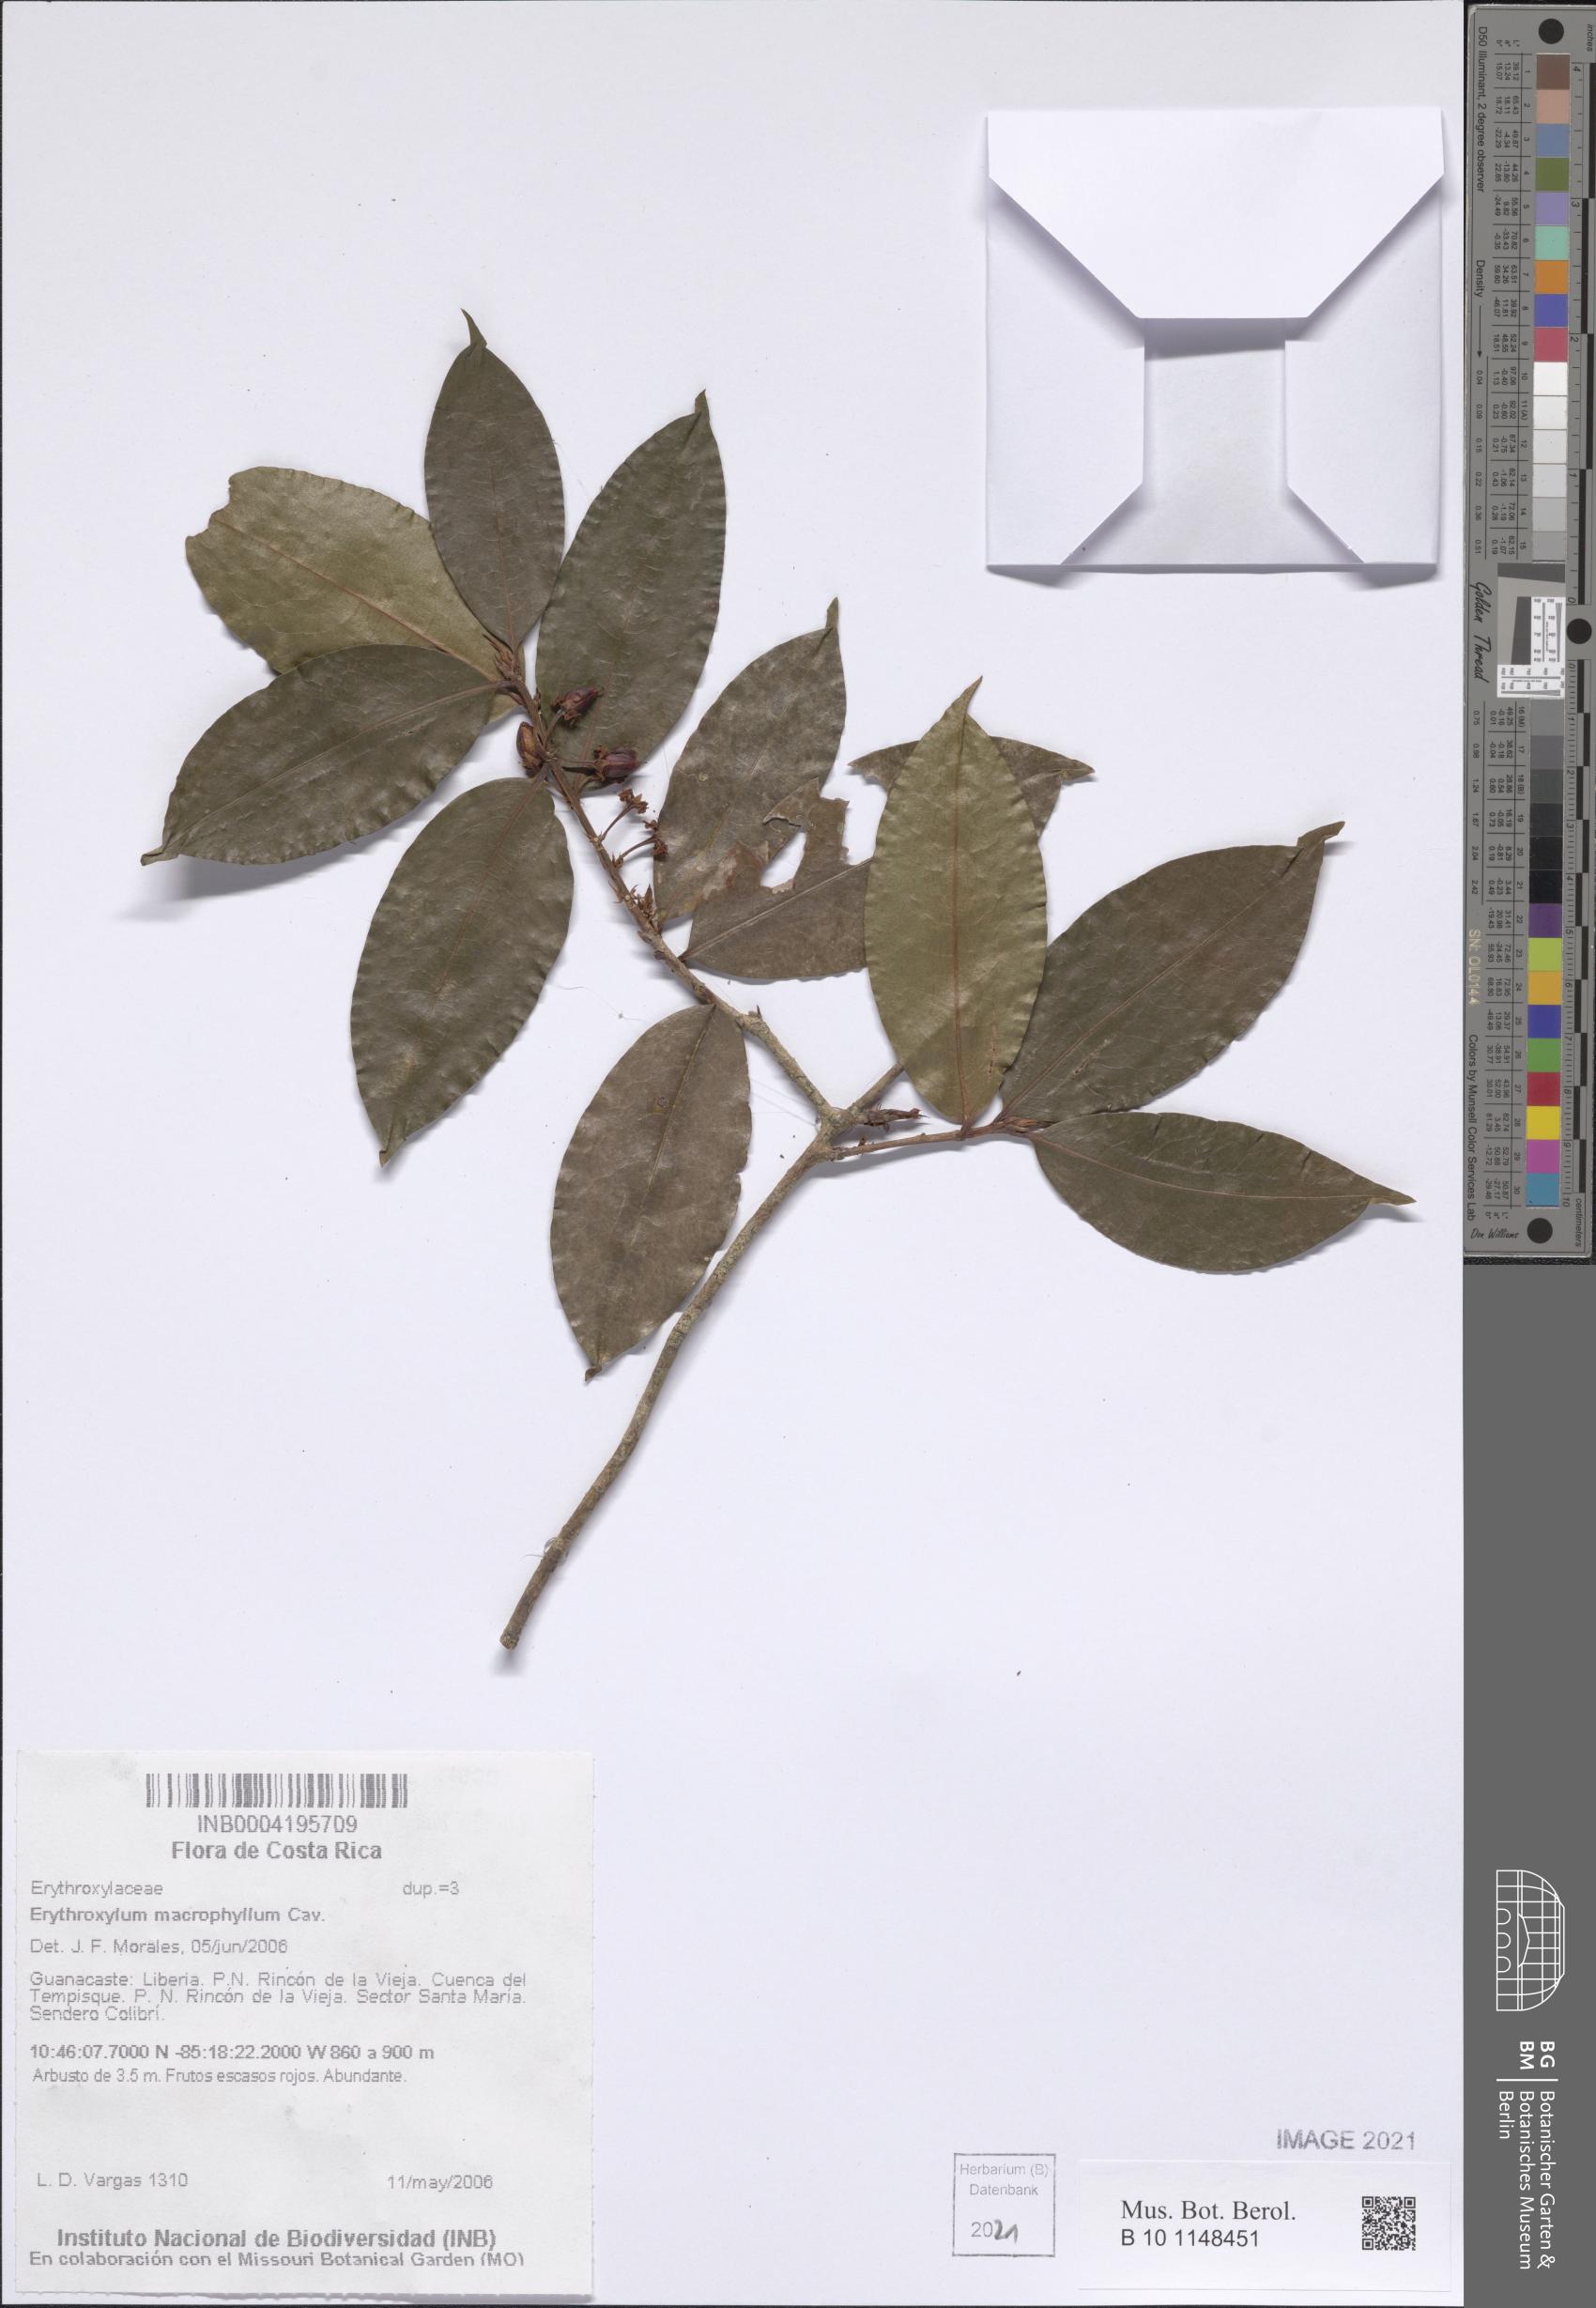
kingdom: Plantae
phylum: Tracheophyta
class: Magnoliopsida
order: Malpighiales
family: Erythroxylaceae
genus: Erythroxylum
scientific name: Erythroxylum macrophyllum
